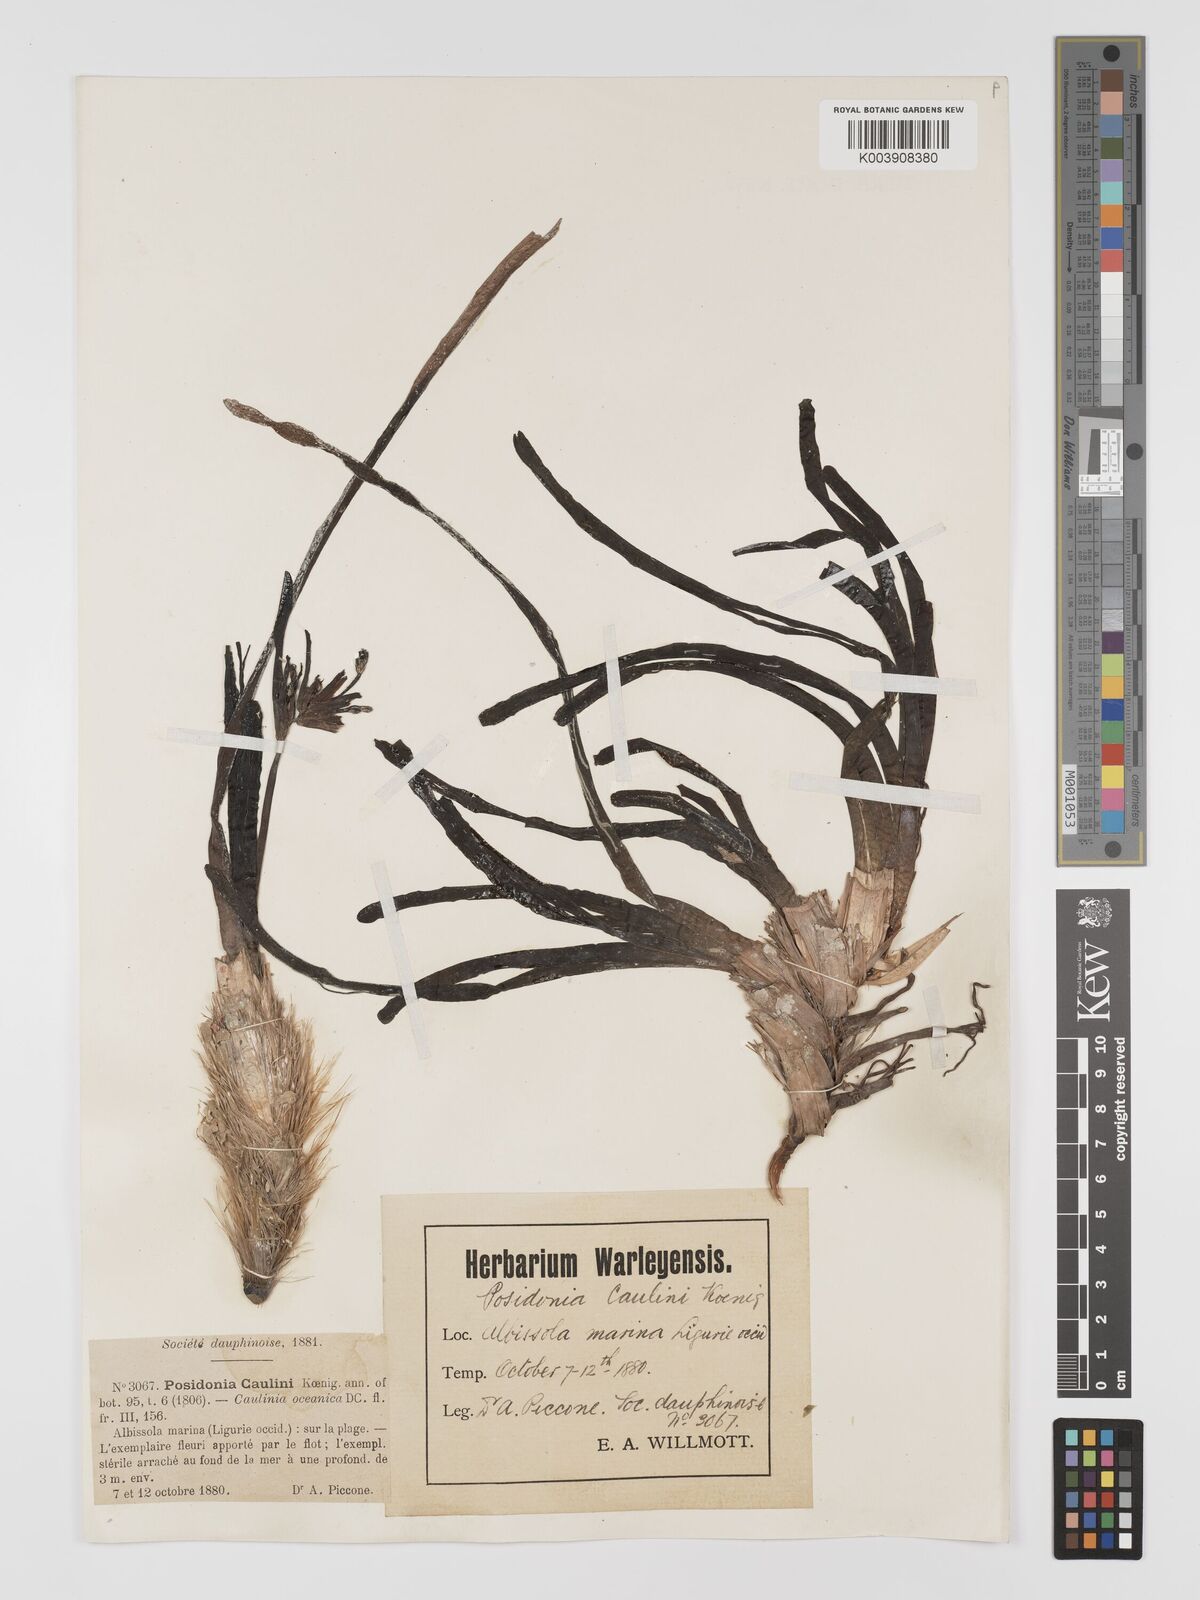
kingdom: Plantae
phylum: Tracheophyta
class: Liliopsida
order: Alismatales
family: Posidoniaceae
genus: Posidonia
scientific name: Posidonia
